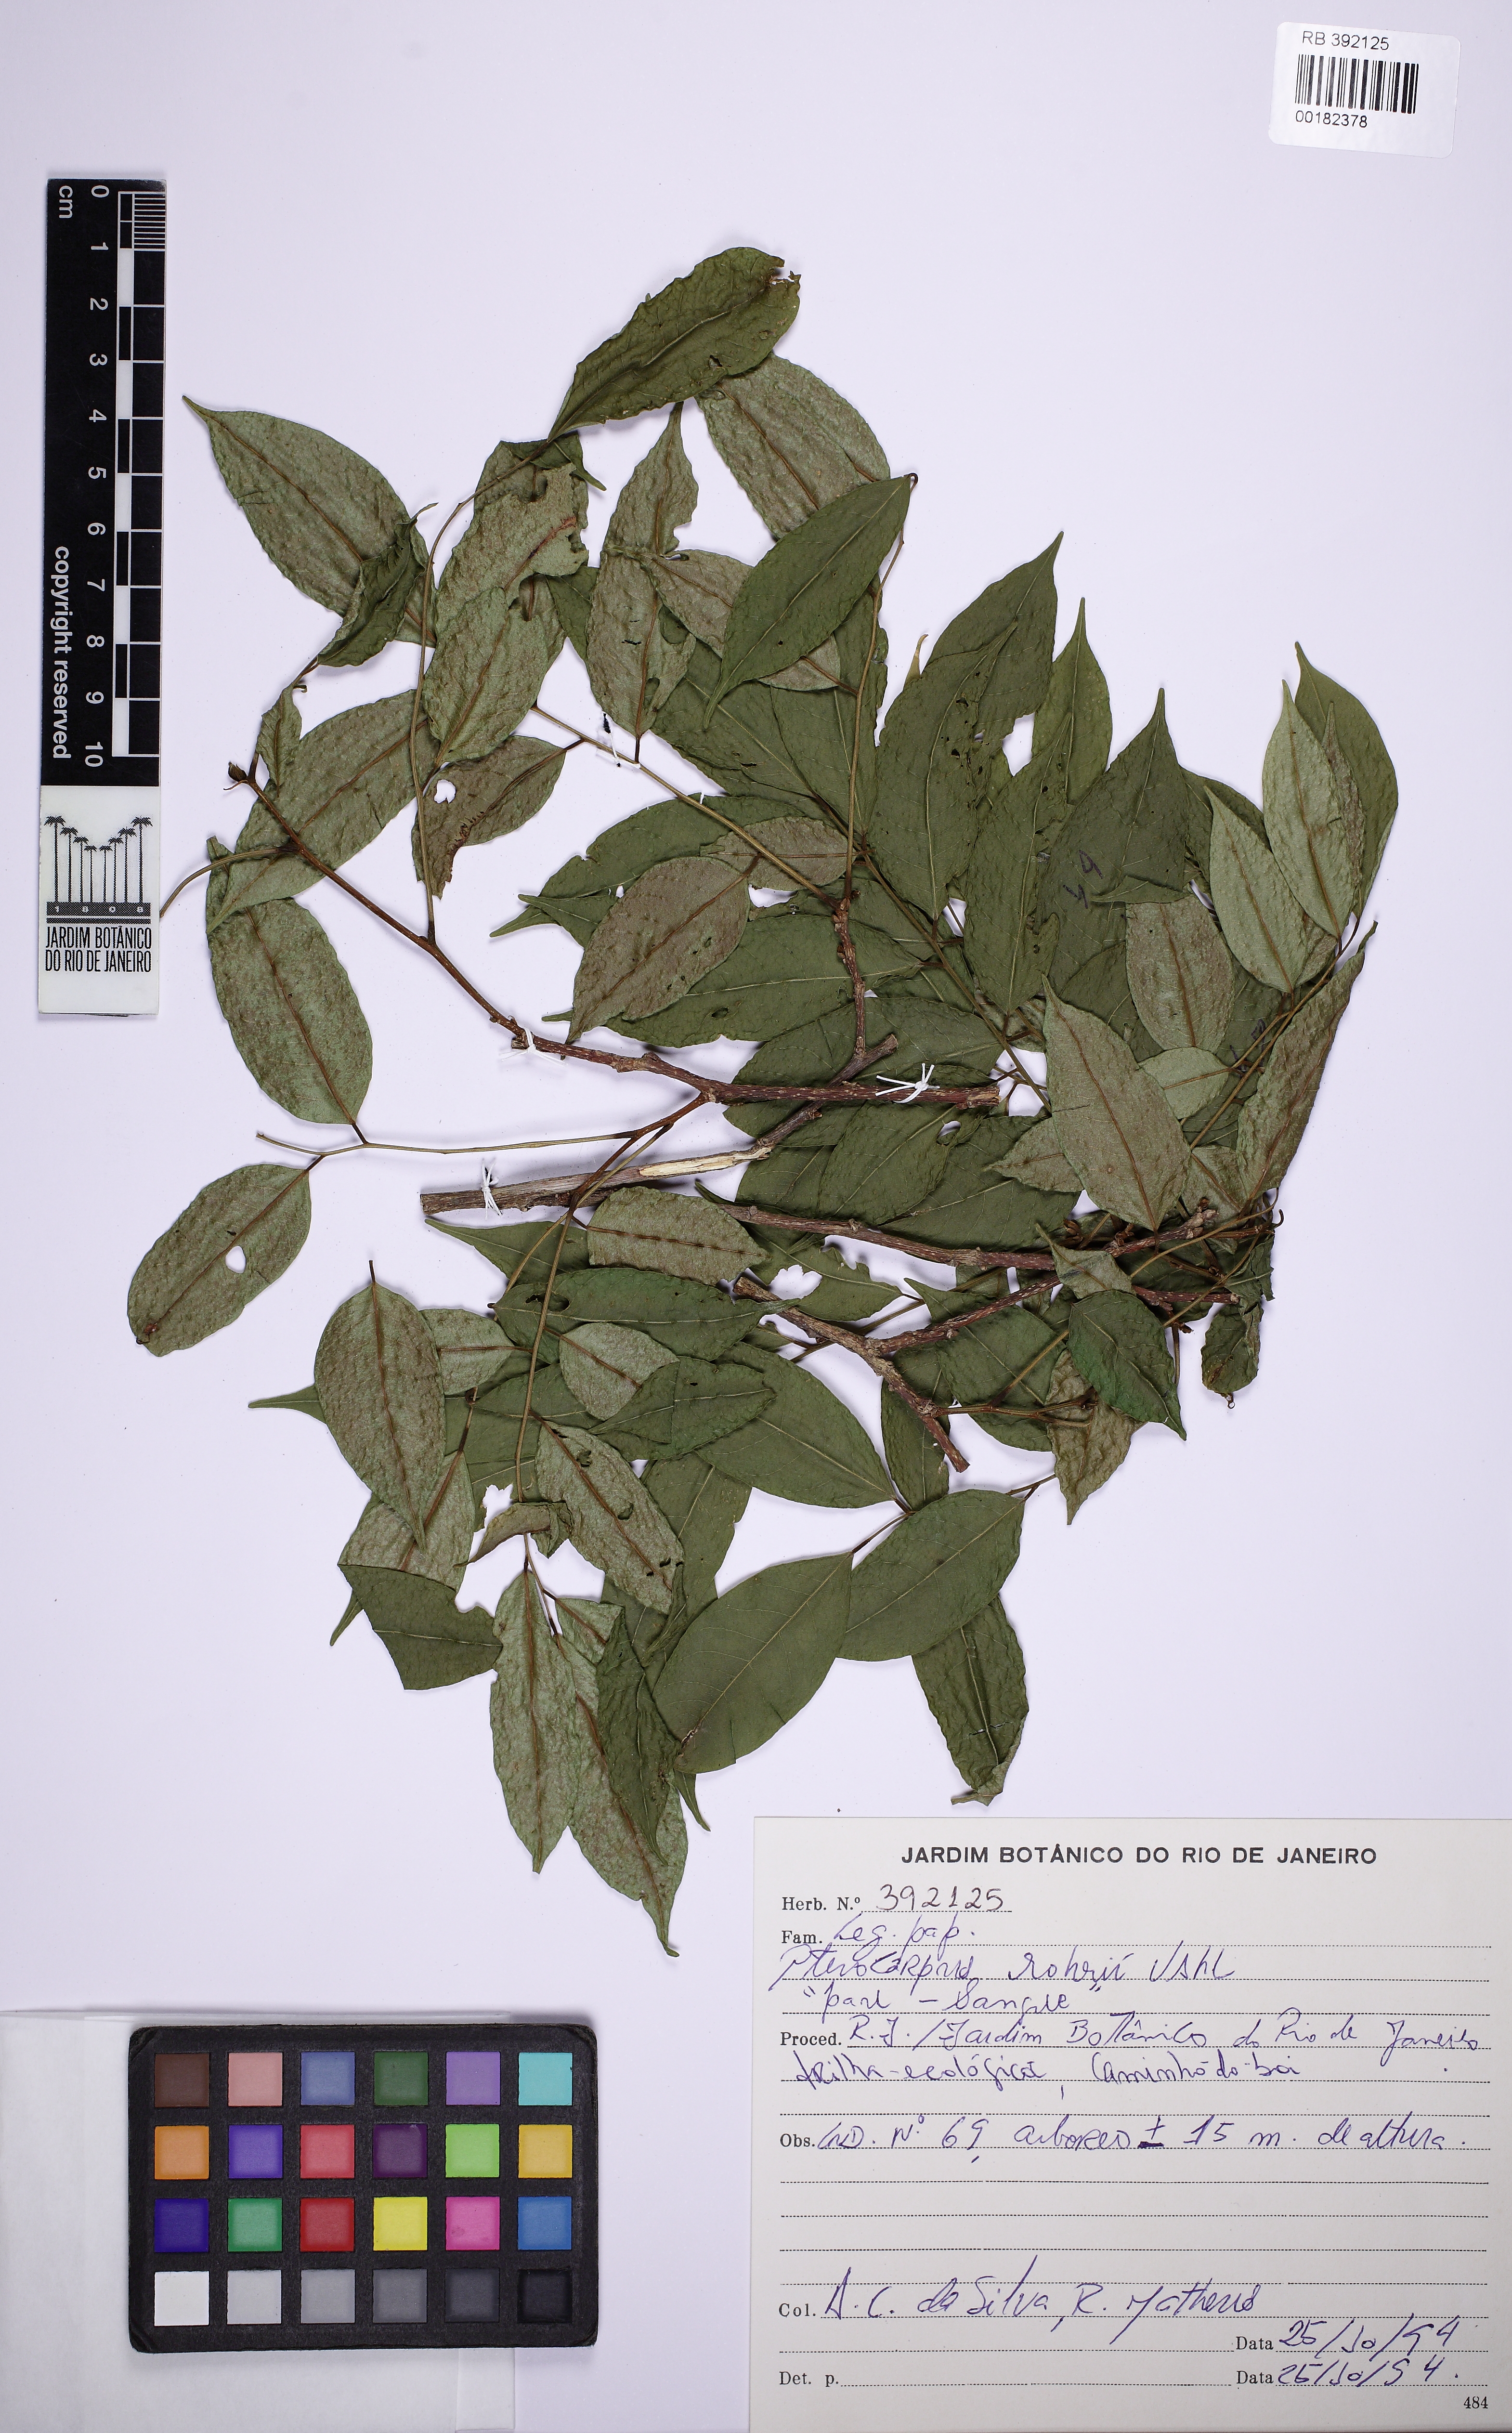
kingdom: Plantae
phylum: Tracheophyta
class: Magnoliopsida
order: Fabales
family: Fabaceae
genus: Pterocarpus
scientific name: Pterocarpus rohrii
